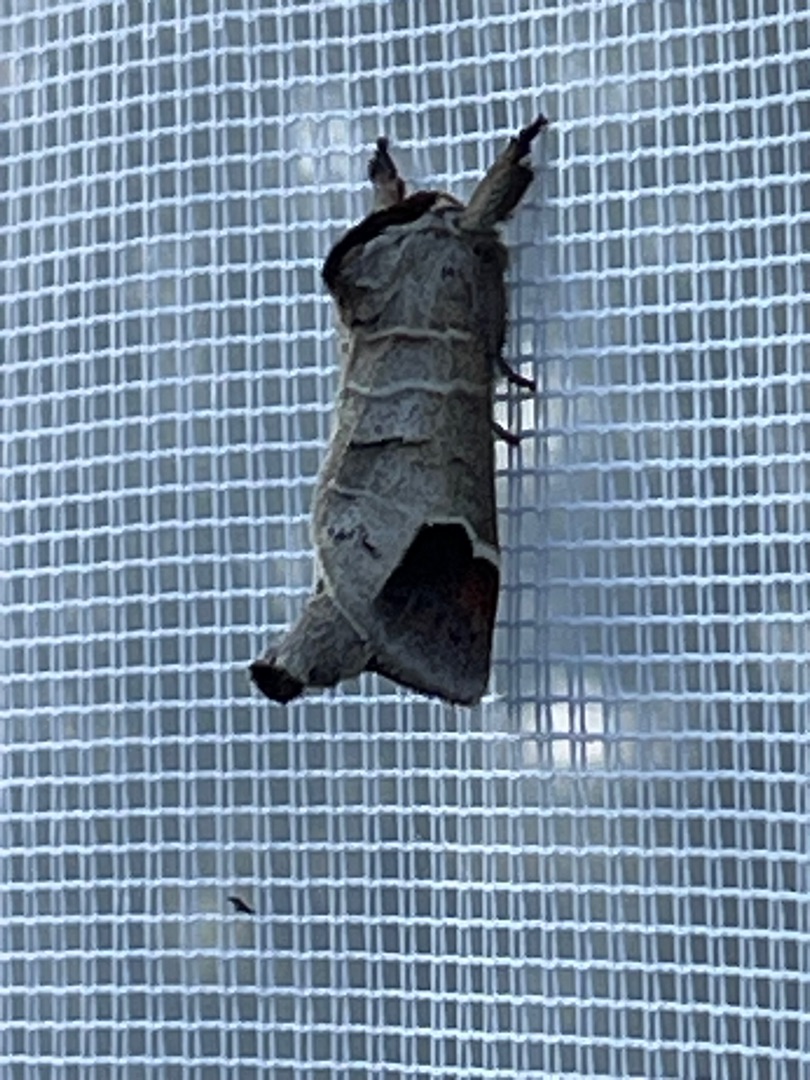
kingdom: Animalia
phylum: Arthropoda
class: Insecta
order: Lepidoptera
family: Notodontidae
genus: Clostera
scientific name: Clostera curtula
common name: Lille måneplet
